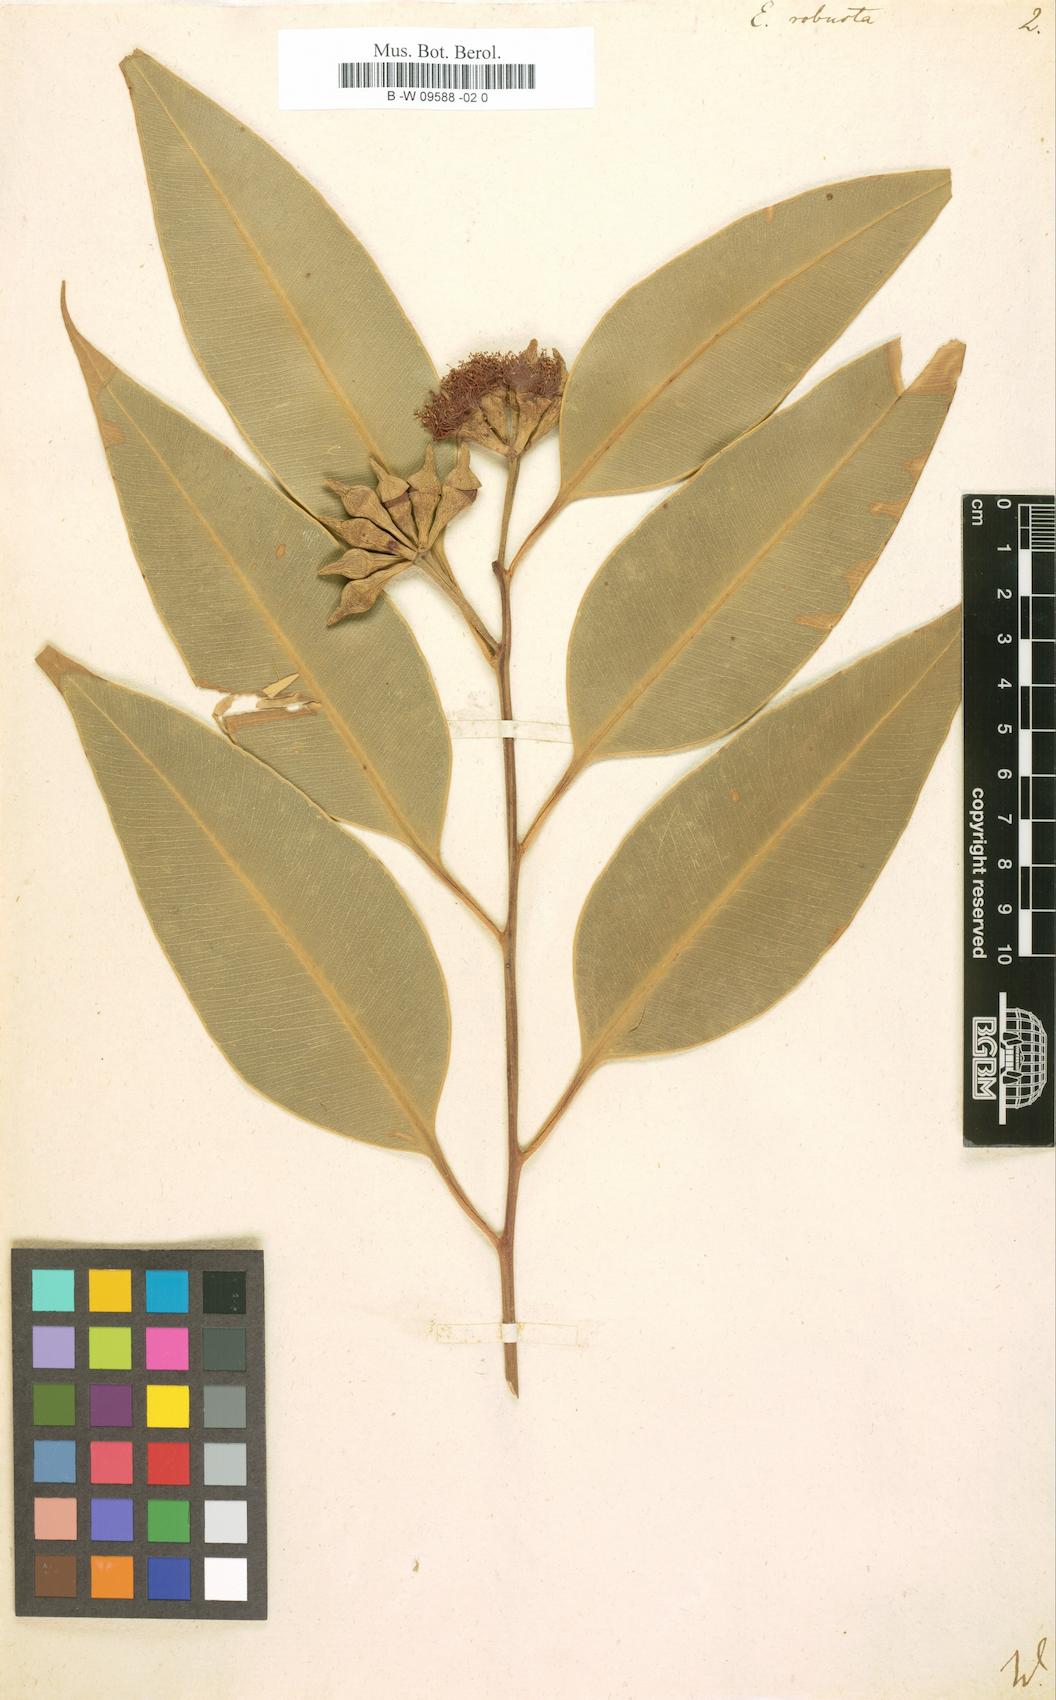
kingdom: Plantae
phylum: Tracheophyta
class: Magnoliopsida
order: Myrtales
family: Myrtaceae
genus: Eucalyptus
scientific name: Eucalyptus robusta
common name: Swampmahogany
